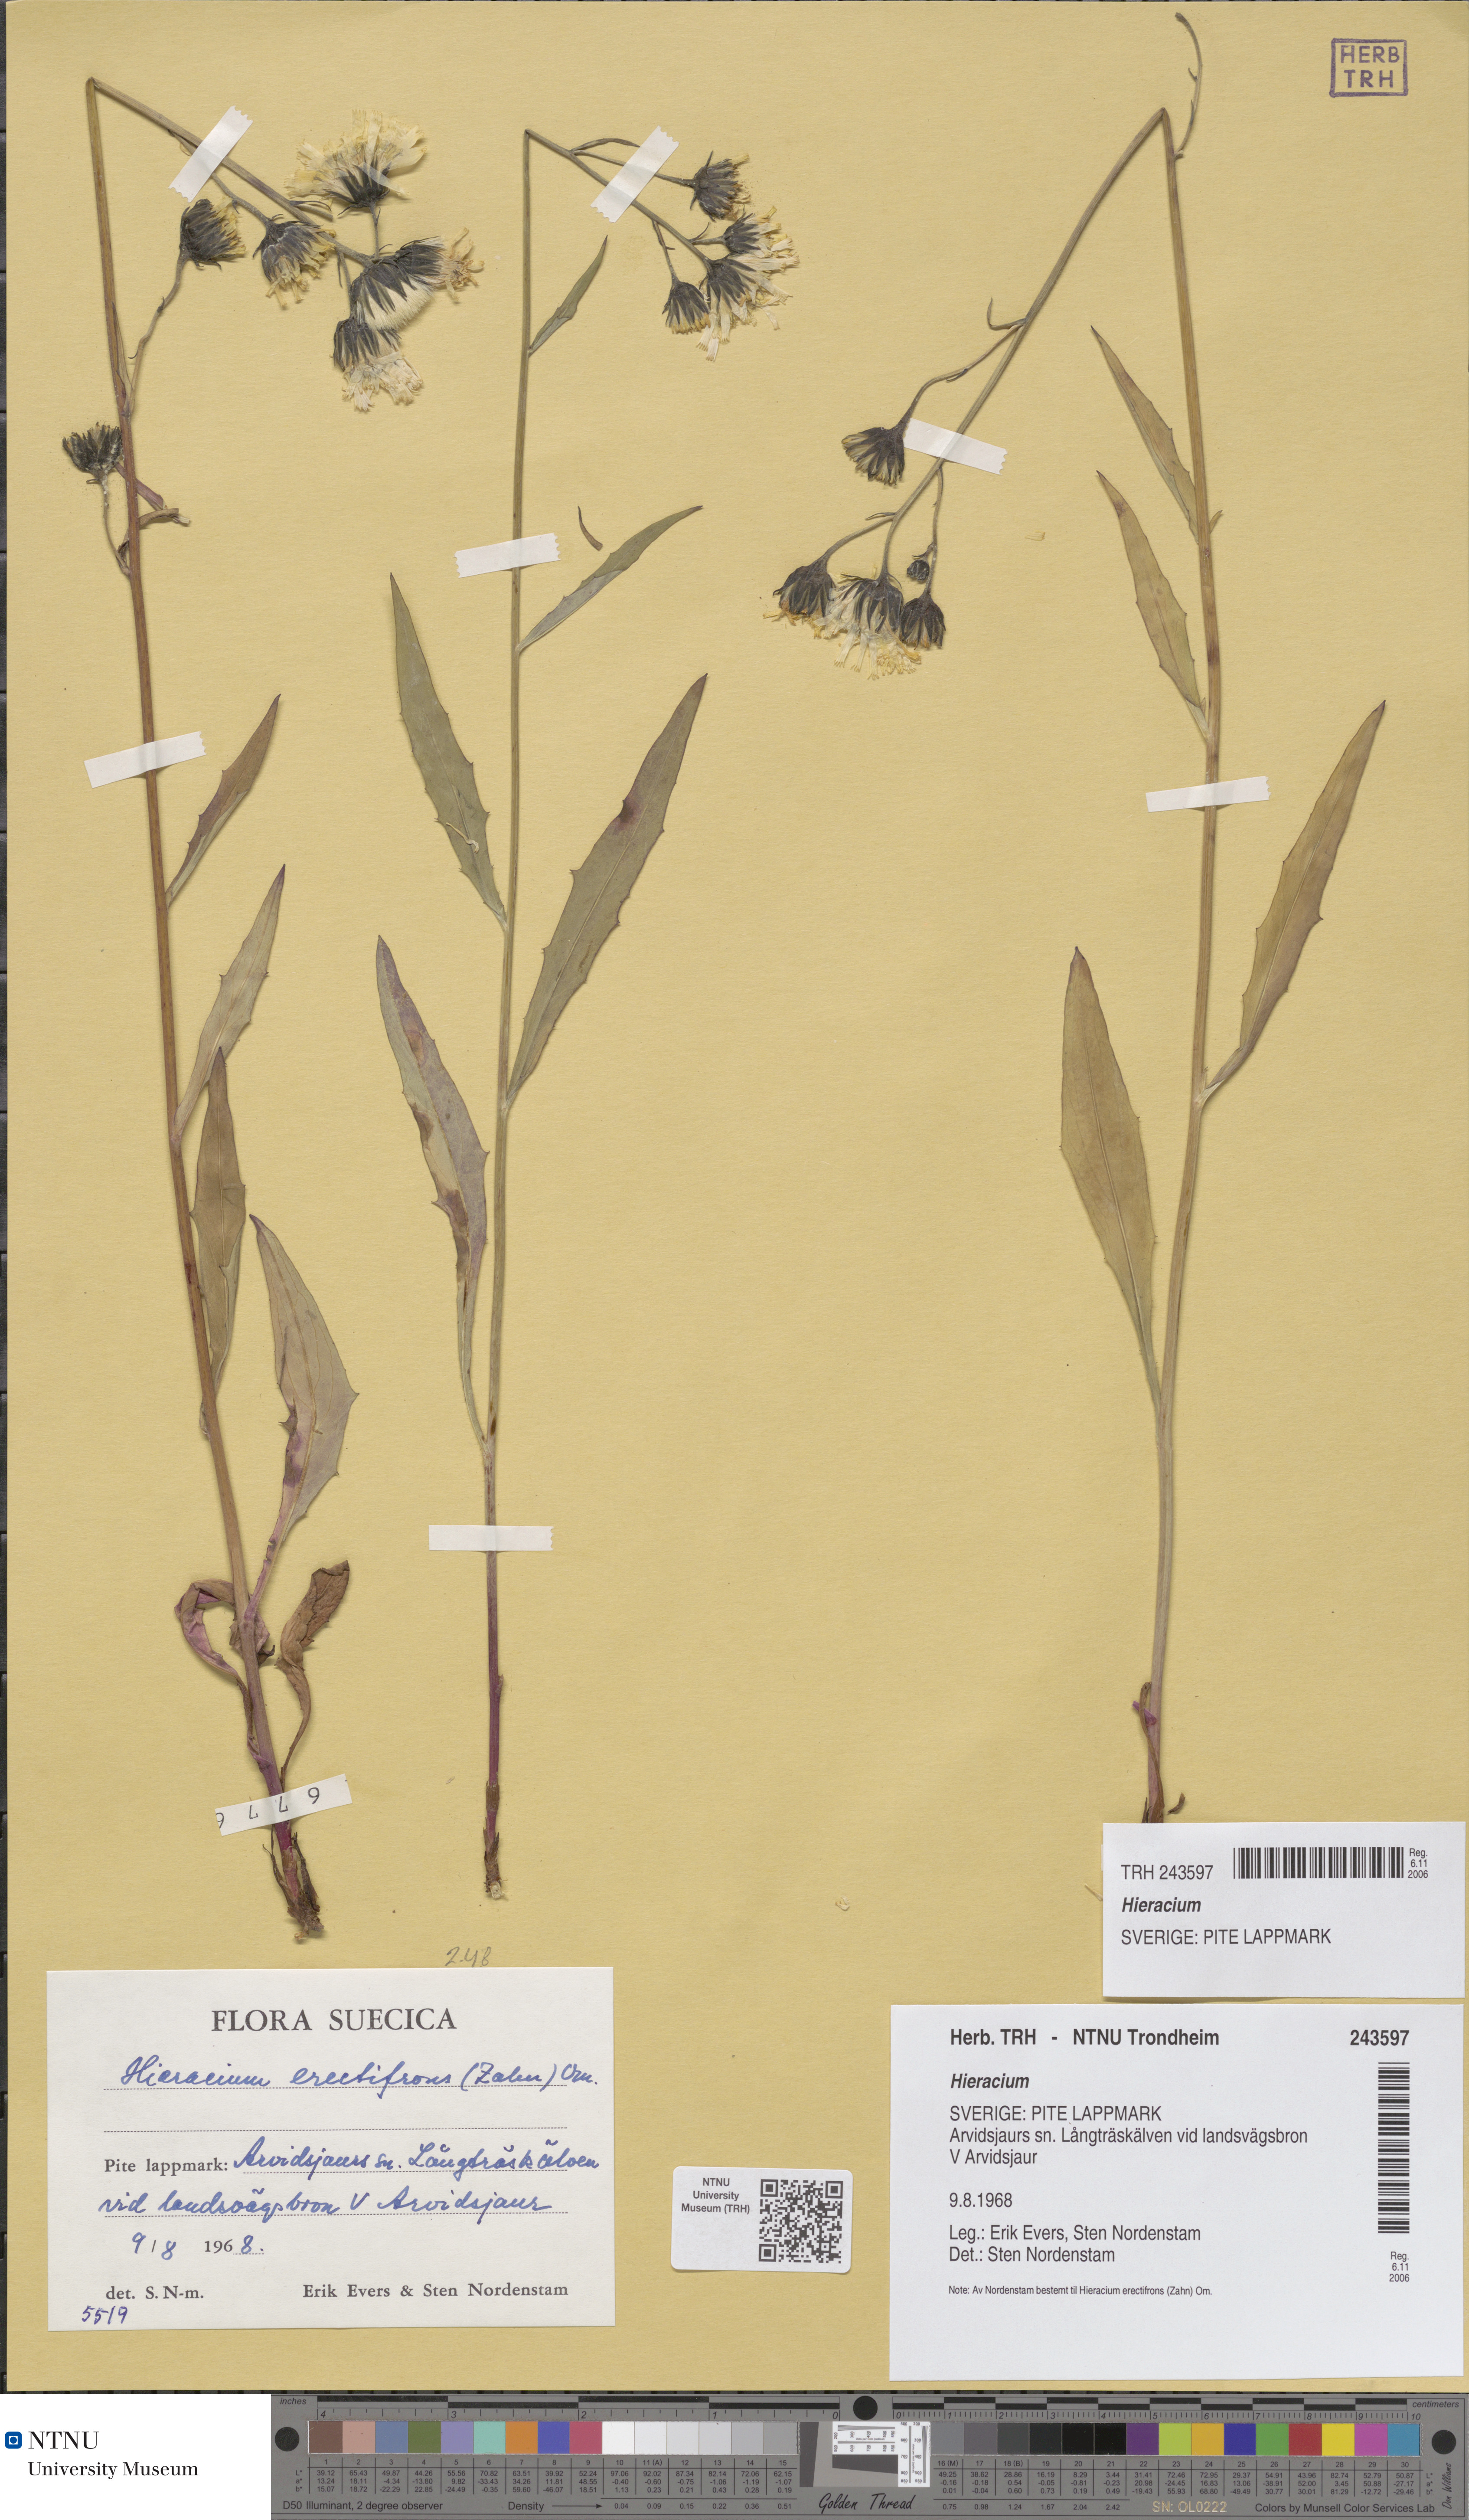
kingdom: Plantae
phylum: Tracheophyta
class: Magnoliopsida
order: Asterales
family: Asteraceae
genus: Hieracium
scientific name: Hieracium
